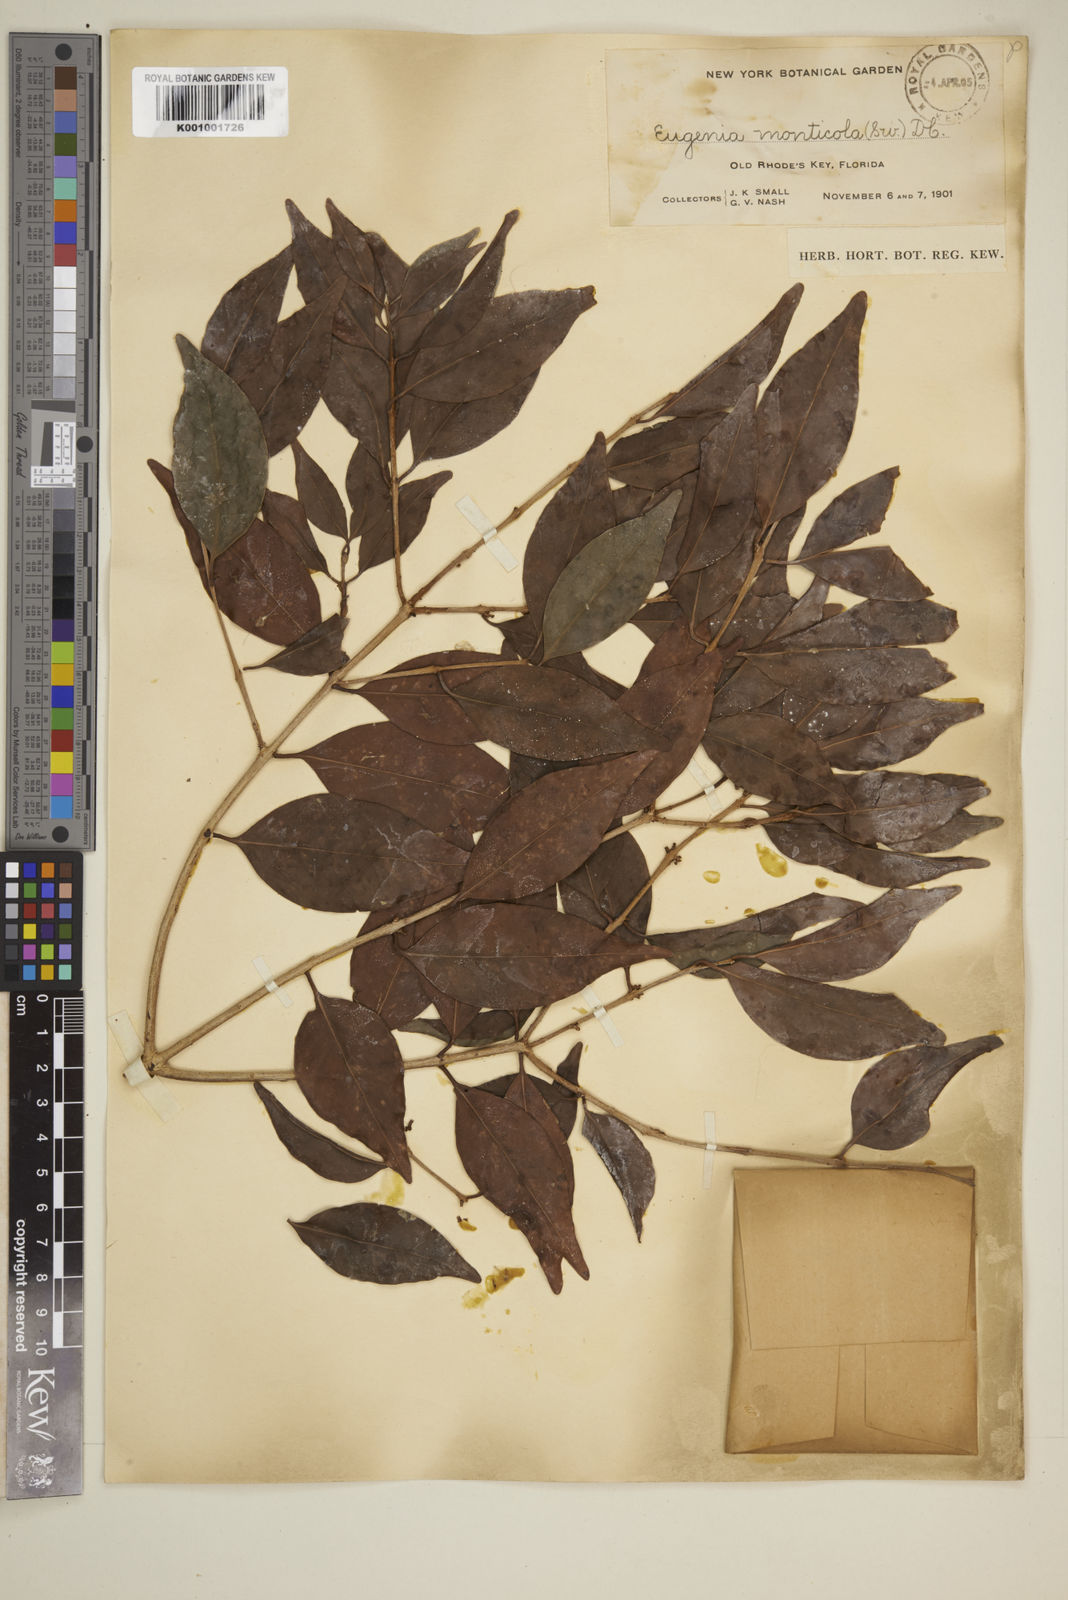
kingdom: Plantae
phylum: Tracheophyta
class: Magnoliopsida
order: Myrtales
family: Myrtaceae
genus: Eugenia
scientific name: Eugenia monticola
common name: Birds berry
